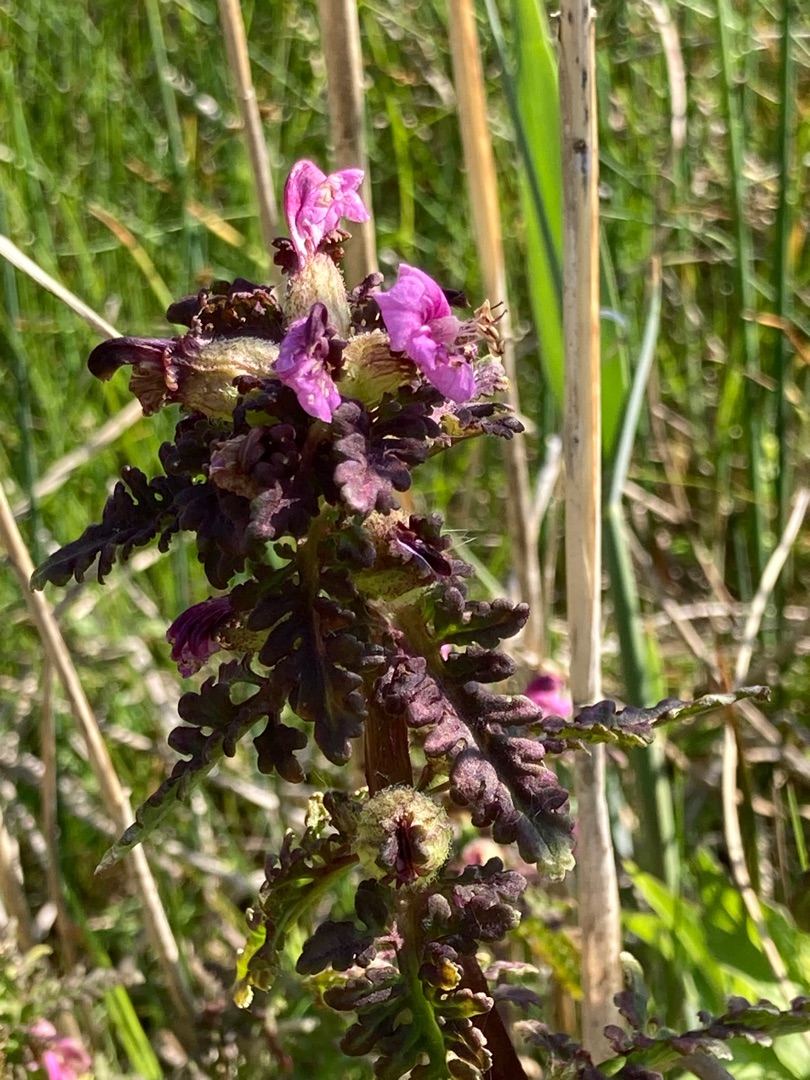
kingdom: Plantae
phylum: Tracheophyta
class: Magnoliopsida
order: Lamiales
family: Orobanchaceae
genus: Pedicularis
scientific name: Pedicularis palustris
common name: Eng-troldurt
